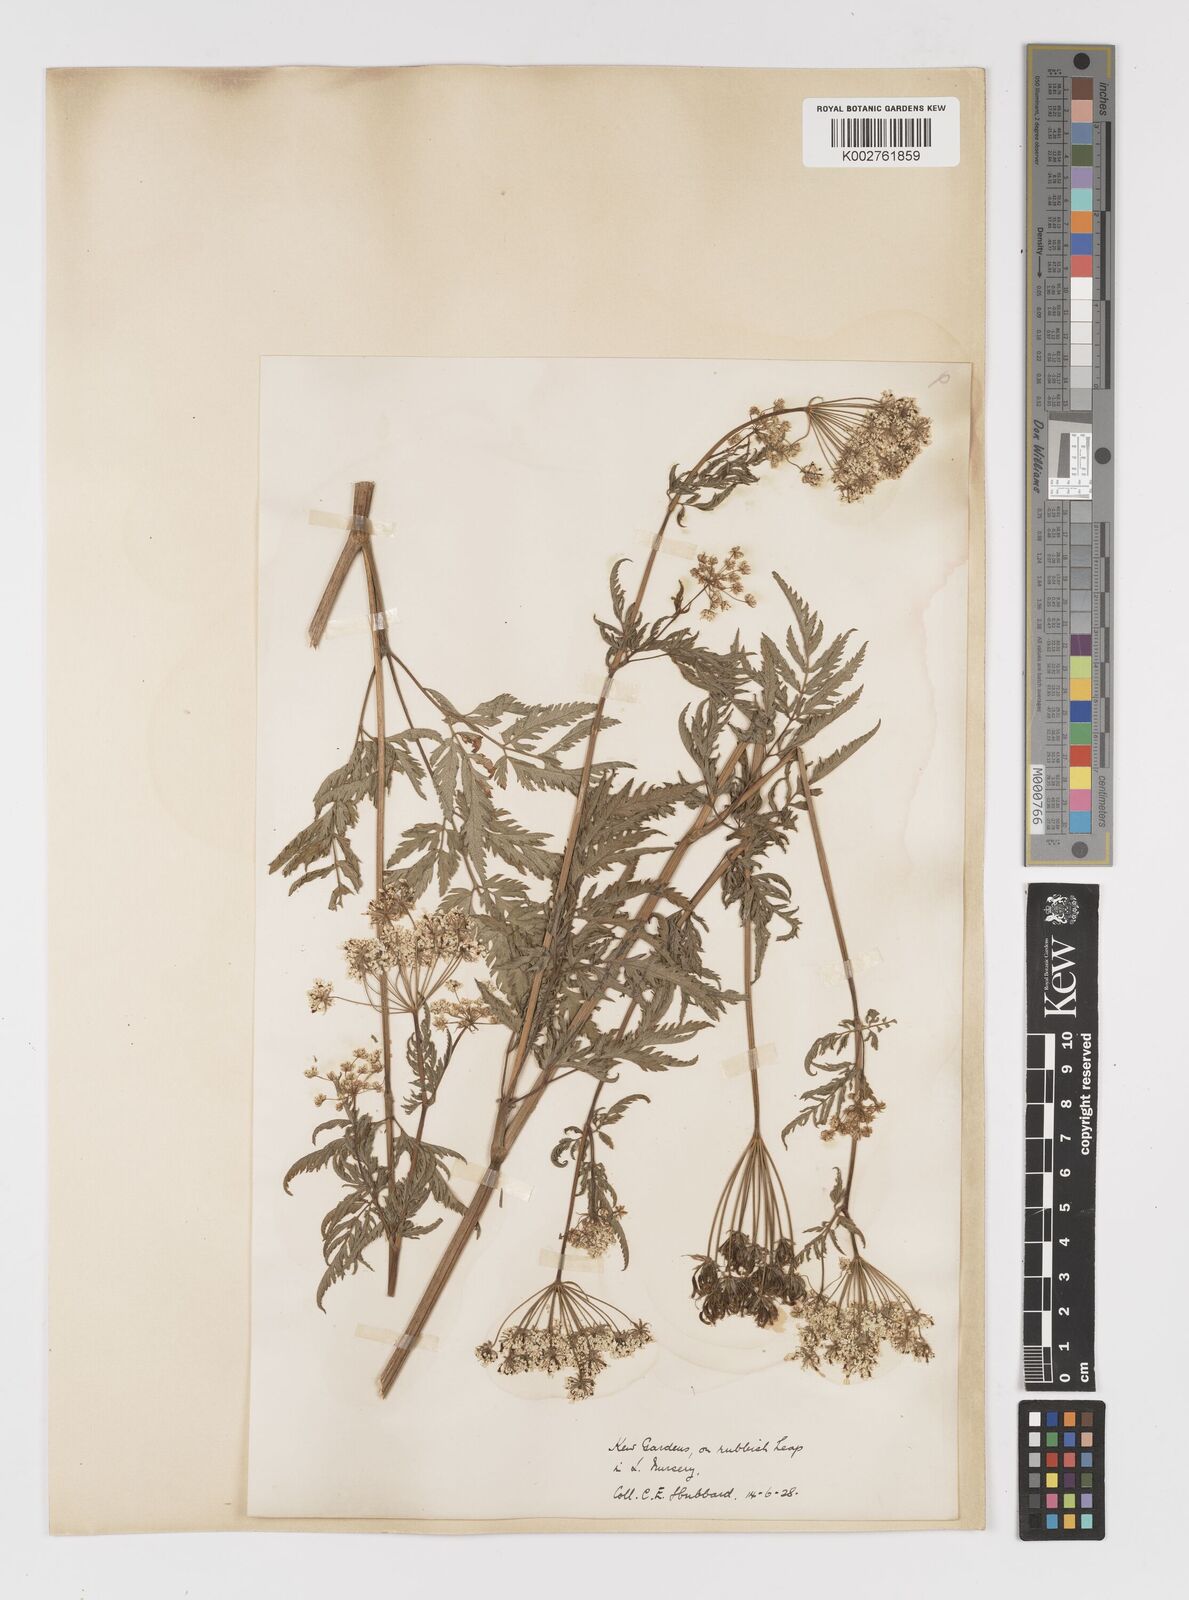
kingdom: Plantae
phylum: Tracheophyta
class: Magnoliopsida
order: Apiales
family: Apiaceae
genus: Chaerophyllum
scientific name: Chaerophyllum aureum
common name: Golden chervil
